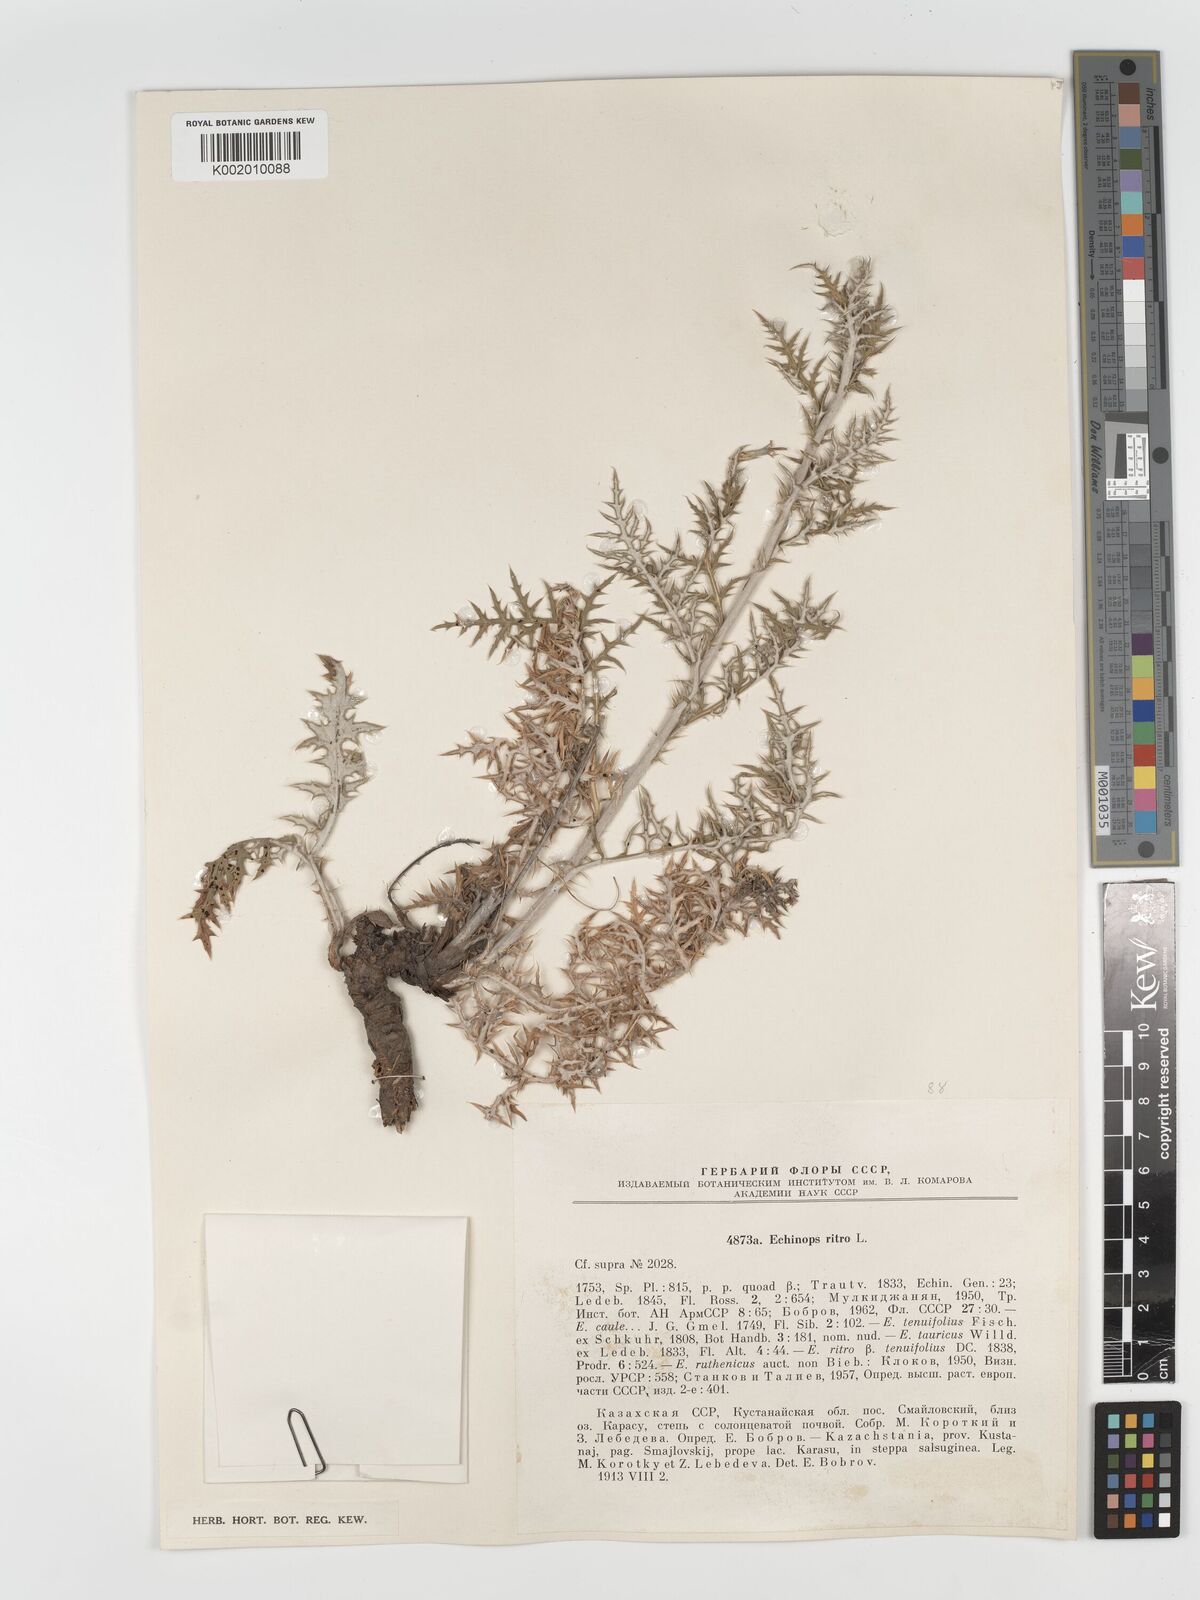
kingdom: Plantae
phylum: Tracheophyta
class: Magnoliopsida
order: Asterales
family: Asteraceae
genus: Echinops
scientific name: Echinops bannaticus
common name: Blue globe-thistle
